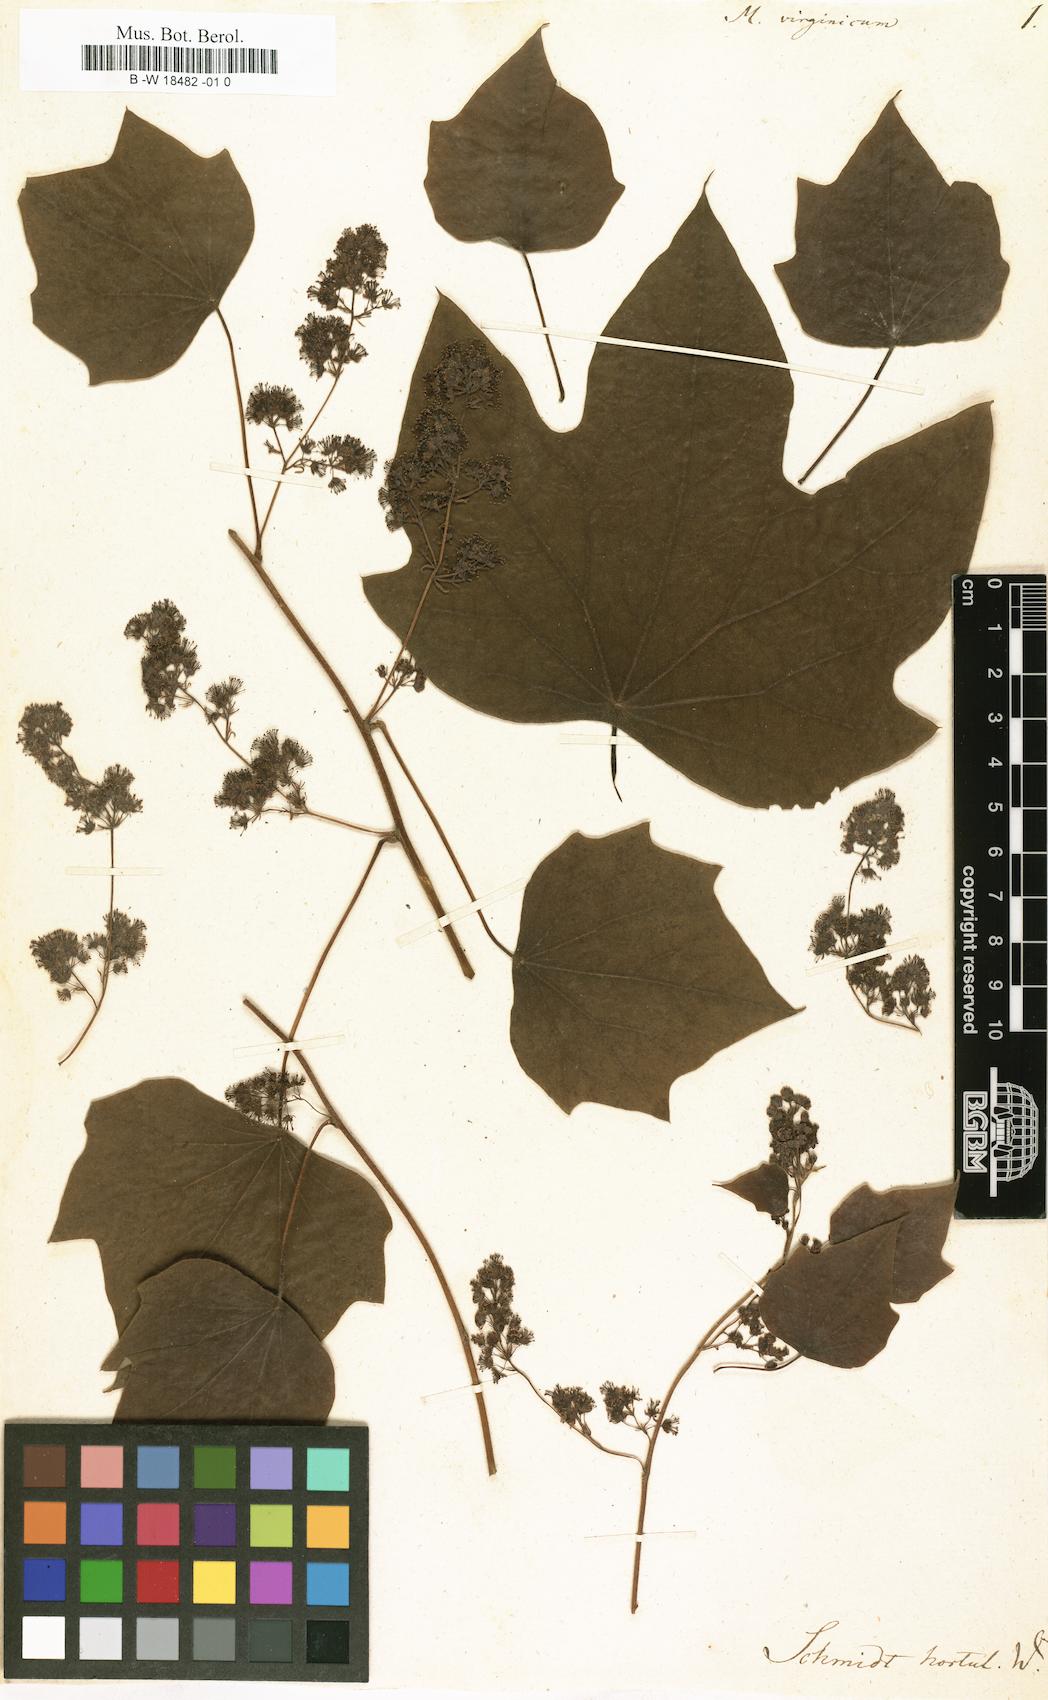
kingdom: Plantae
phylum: Tracheophyta
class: Magnoliopsida
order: Ranunculales
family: Menispermaceae
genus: Cocculus
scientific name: Cocculus carolinus
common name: Carolina moonseed
